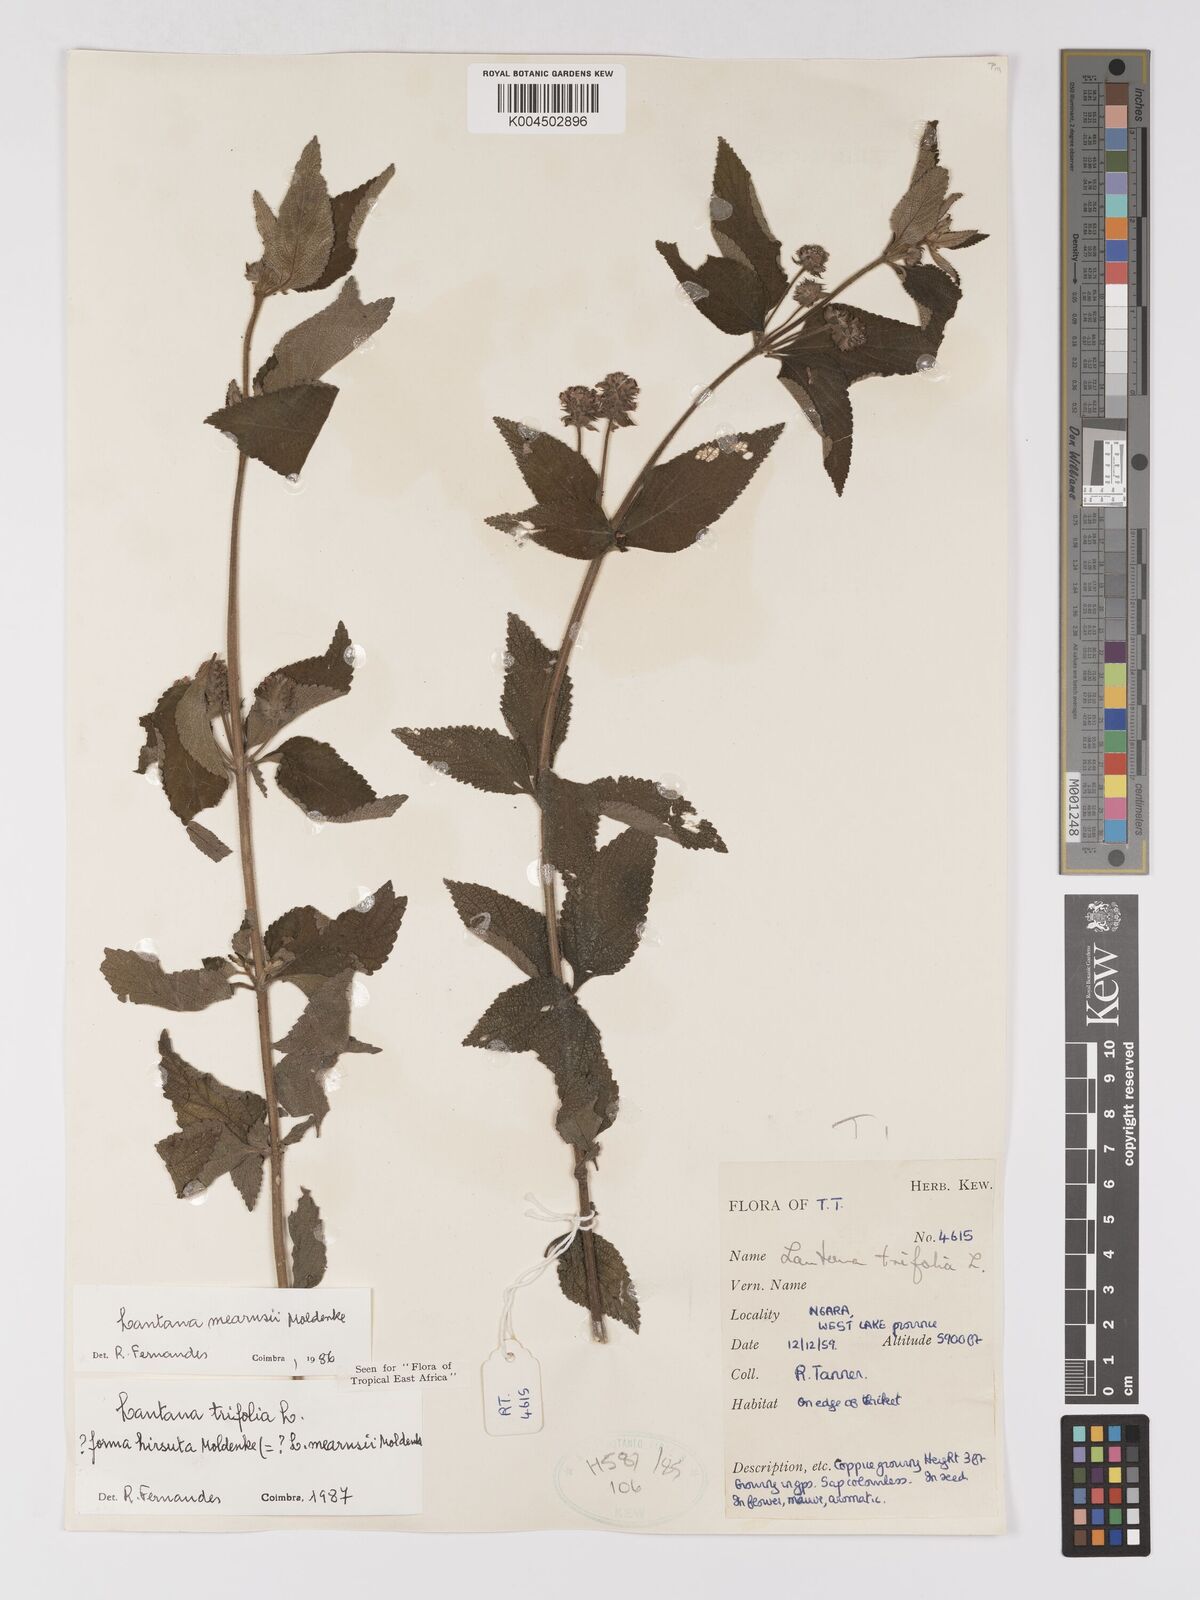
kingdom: Plantae
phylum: Tracheophyta
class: Magnoliopsida
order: Lamiales
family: Verbenaceae
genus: Lantana
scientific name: Lantana trifolia
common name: Sweet-sage
